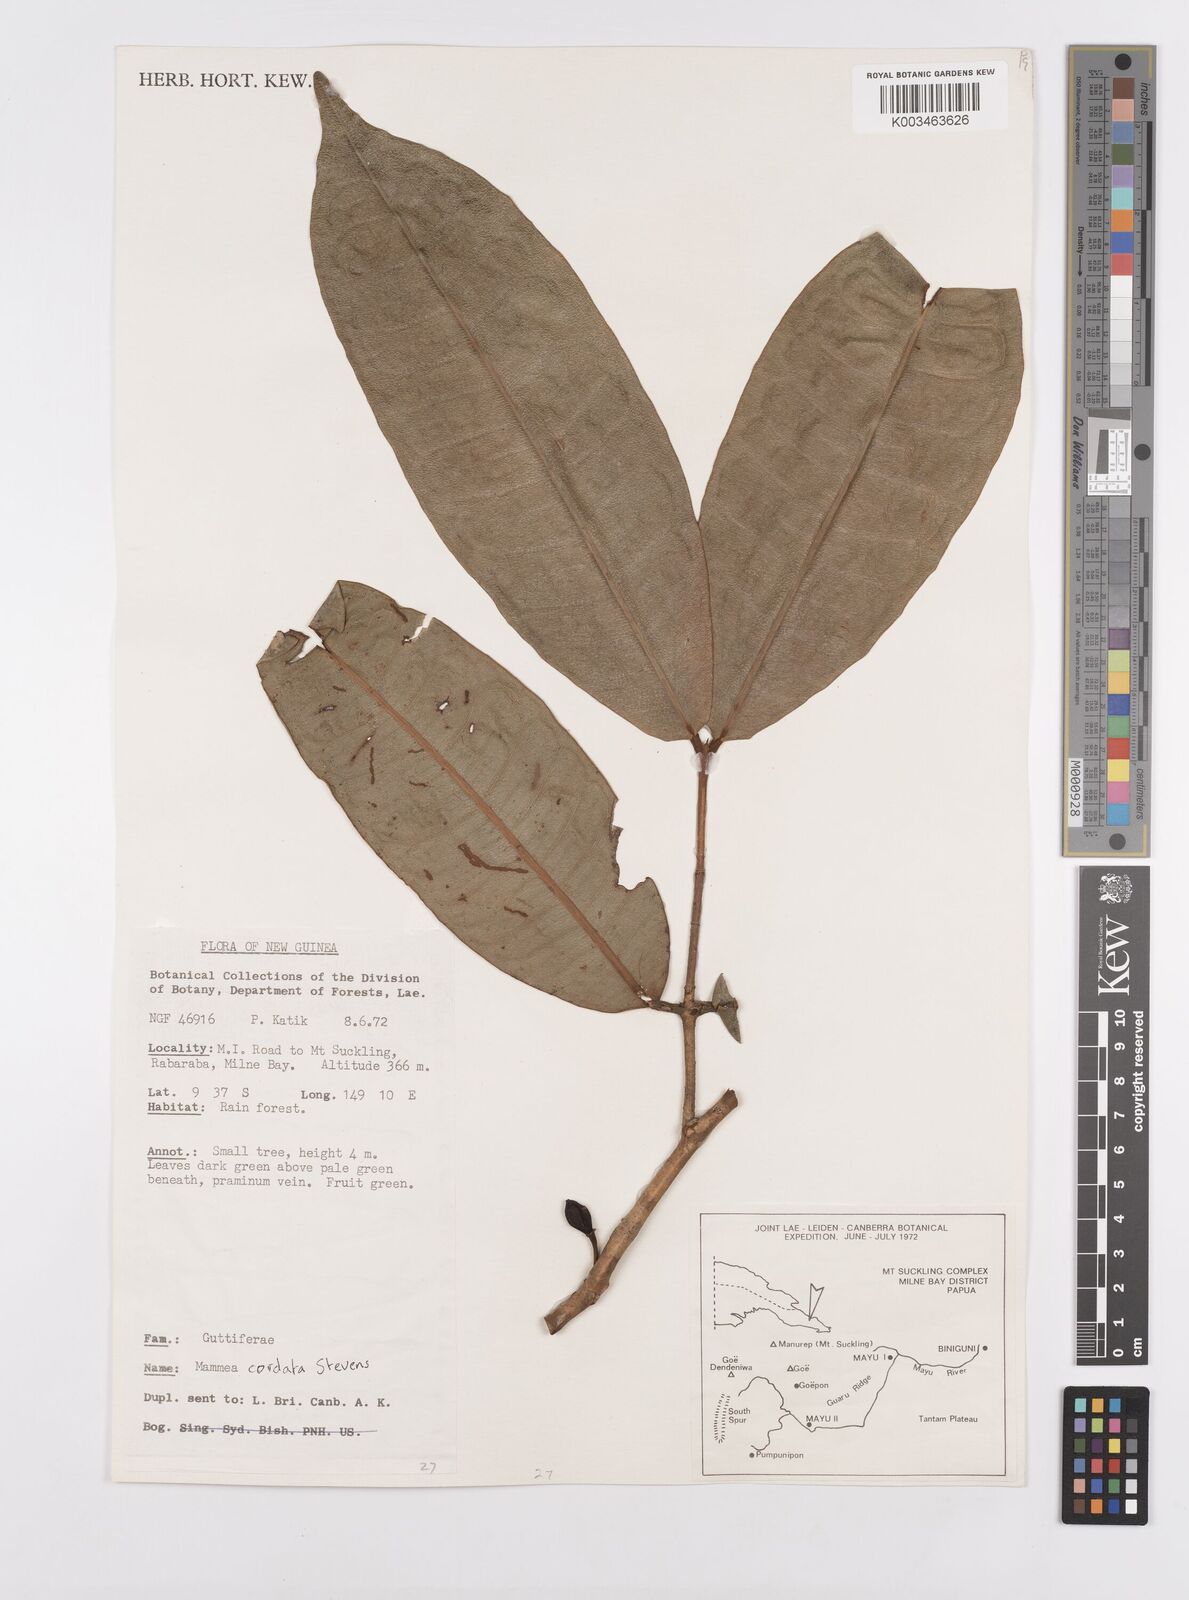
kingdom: Plantae
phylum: Tracheophyta
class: Magnoliopsida
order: Malpighiales
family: Calophyllaceae
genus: Mammea
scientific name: Mammea cordata
